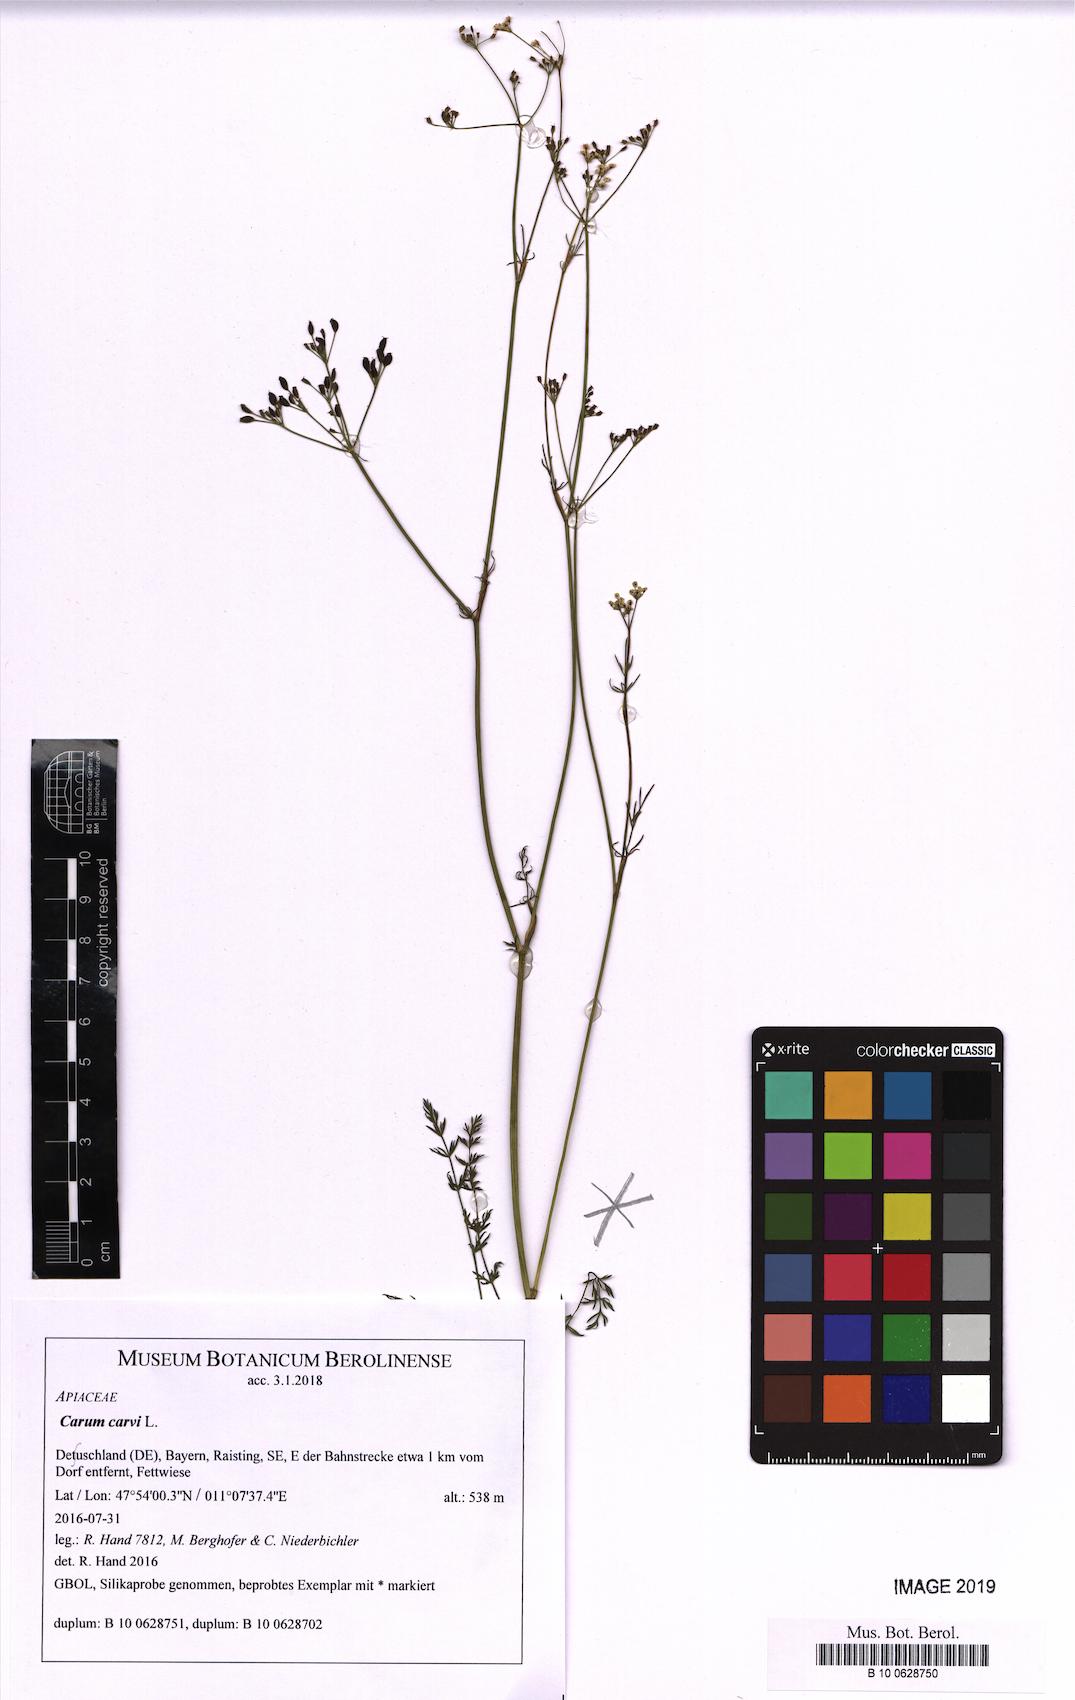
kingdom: Plantae
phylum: Tracheophyta
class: Magnoliopsida
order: Apiales
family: Apiaceae
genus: Carum
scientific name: Carum carvi
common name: Caraway
